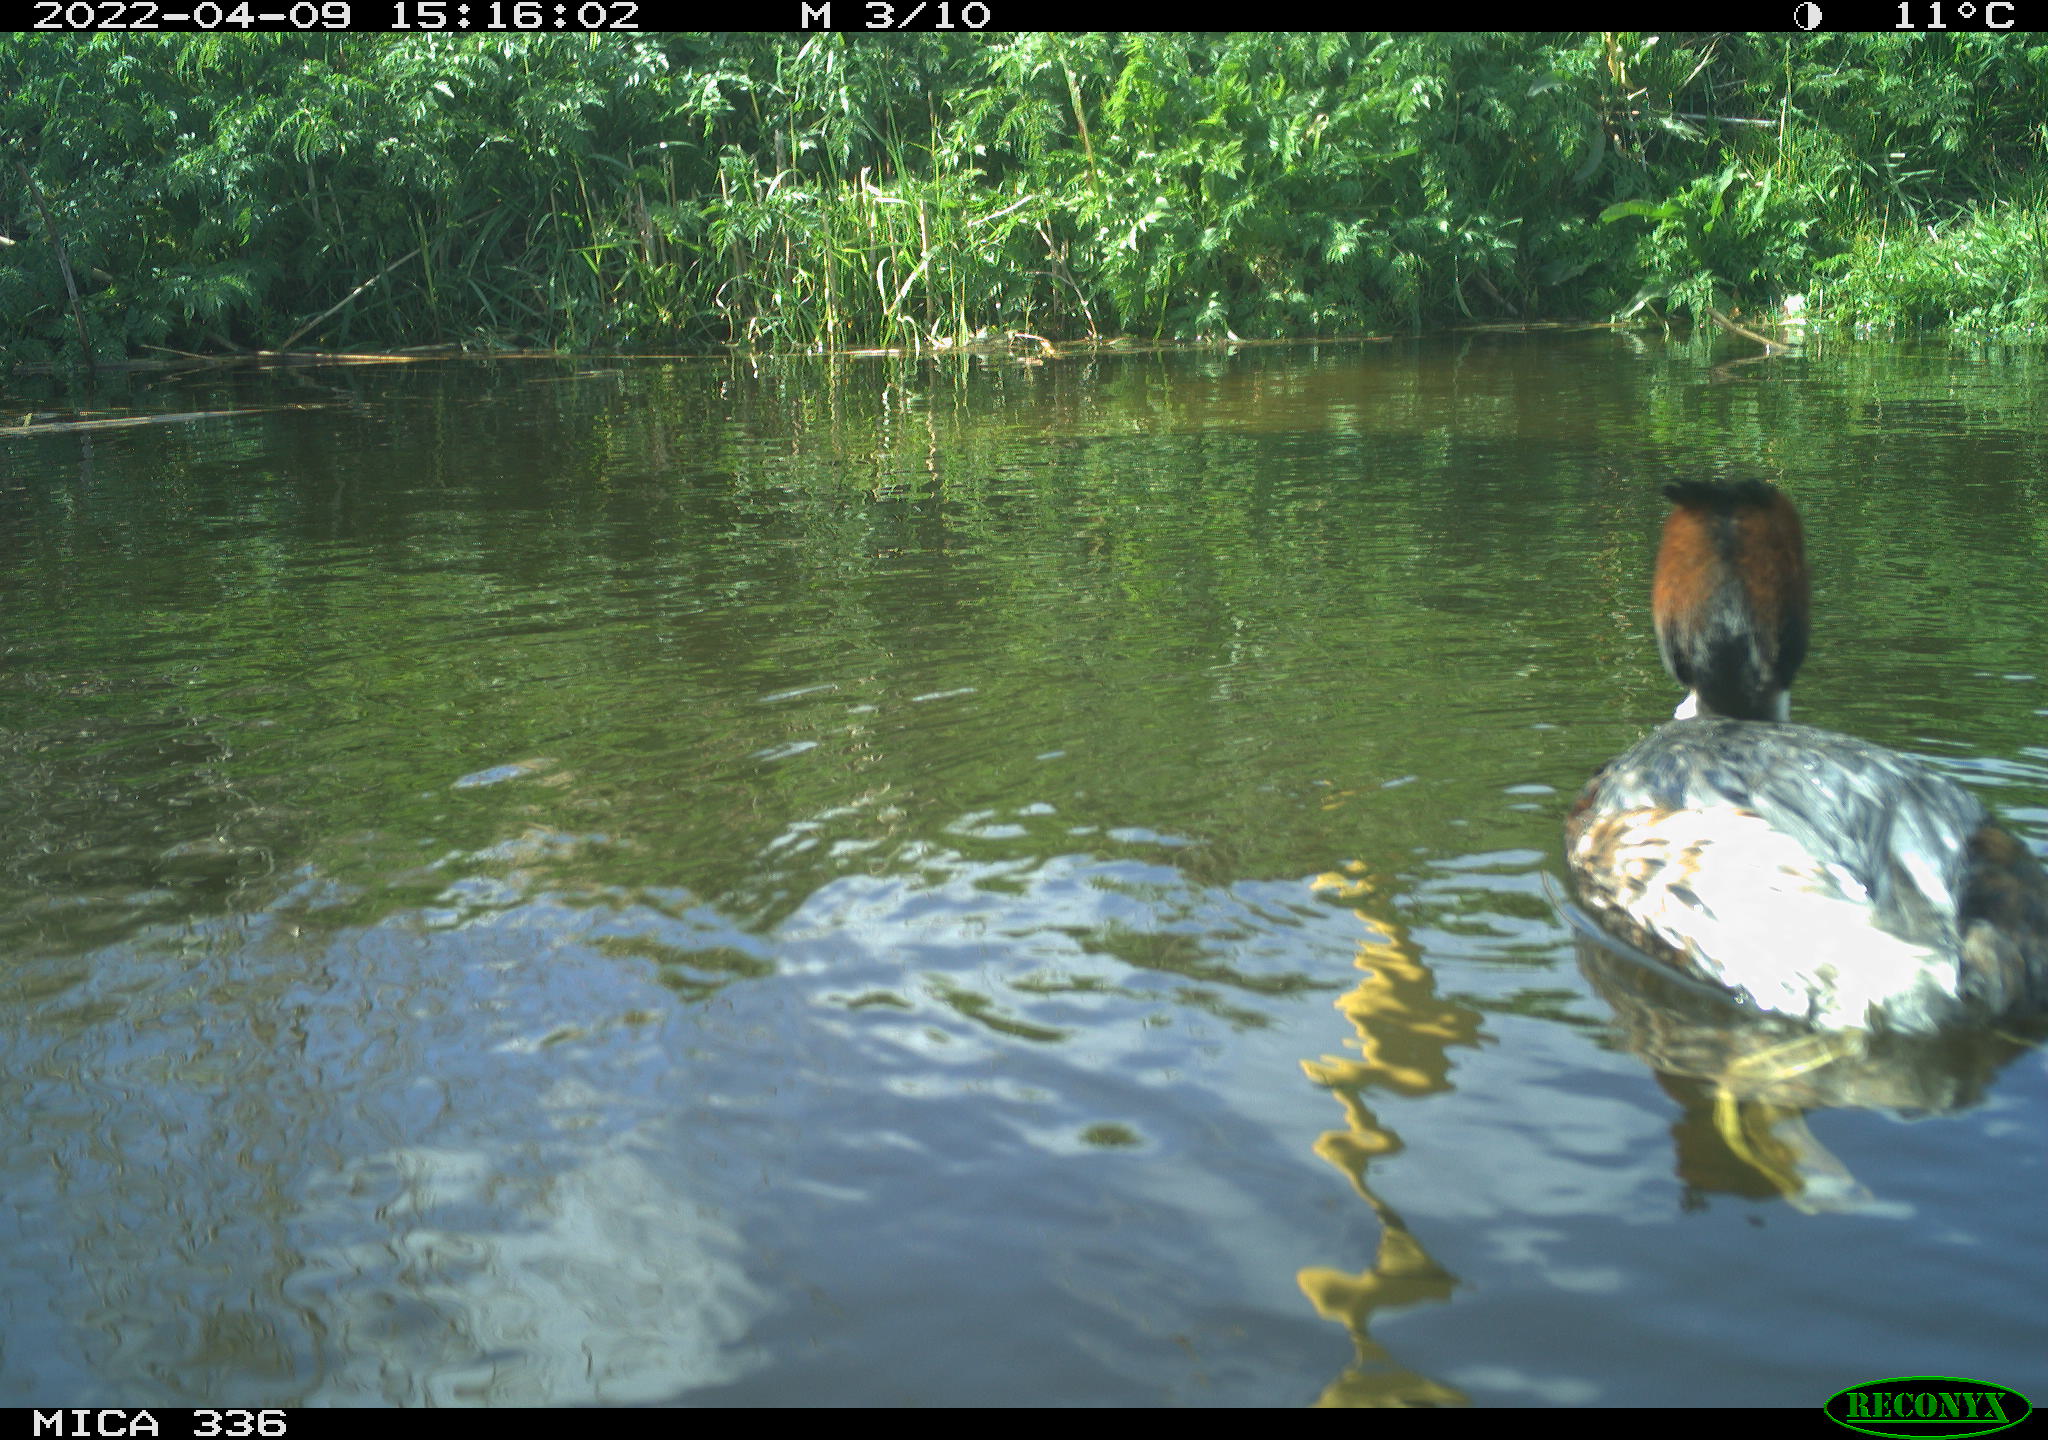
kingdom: Animalia
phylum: Chordata
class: Aves
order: Podicipediformes
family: Podicipedidae
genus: Podiceps
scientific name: Podiceps cristatus
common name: Great crested grebe
